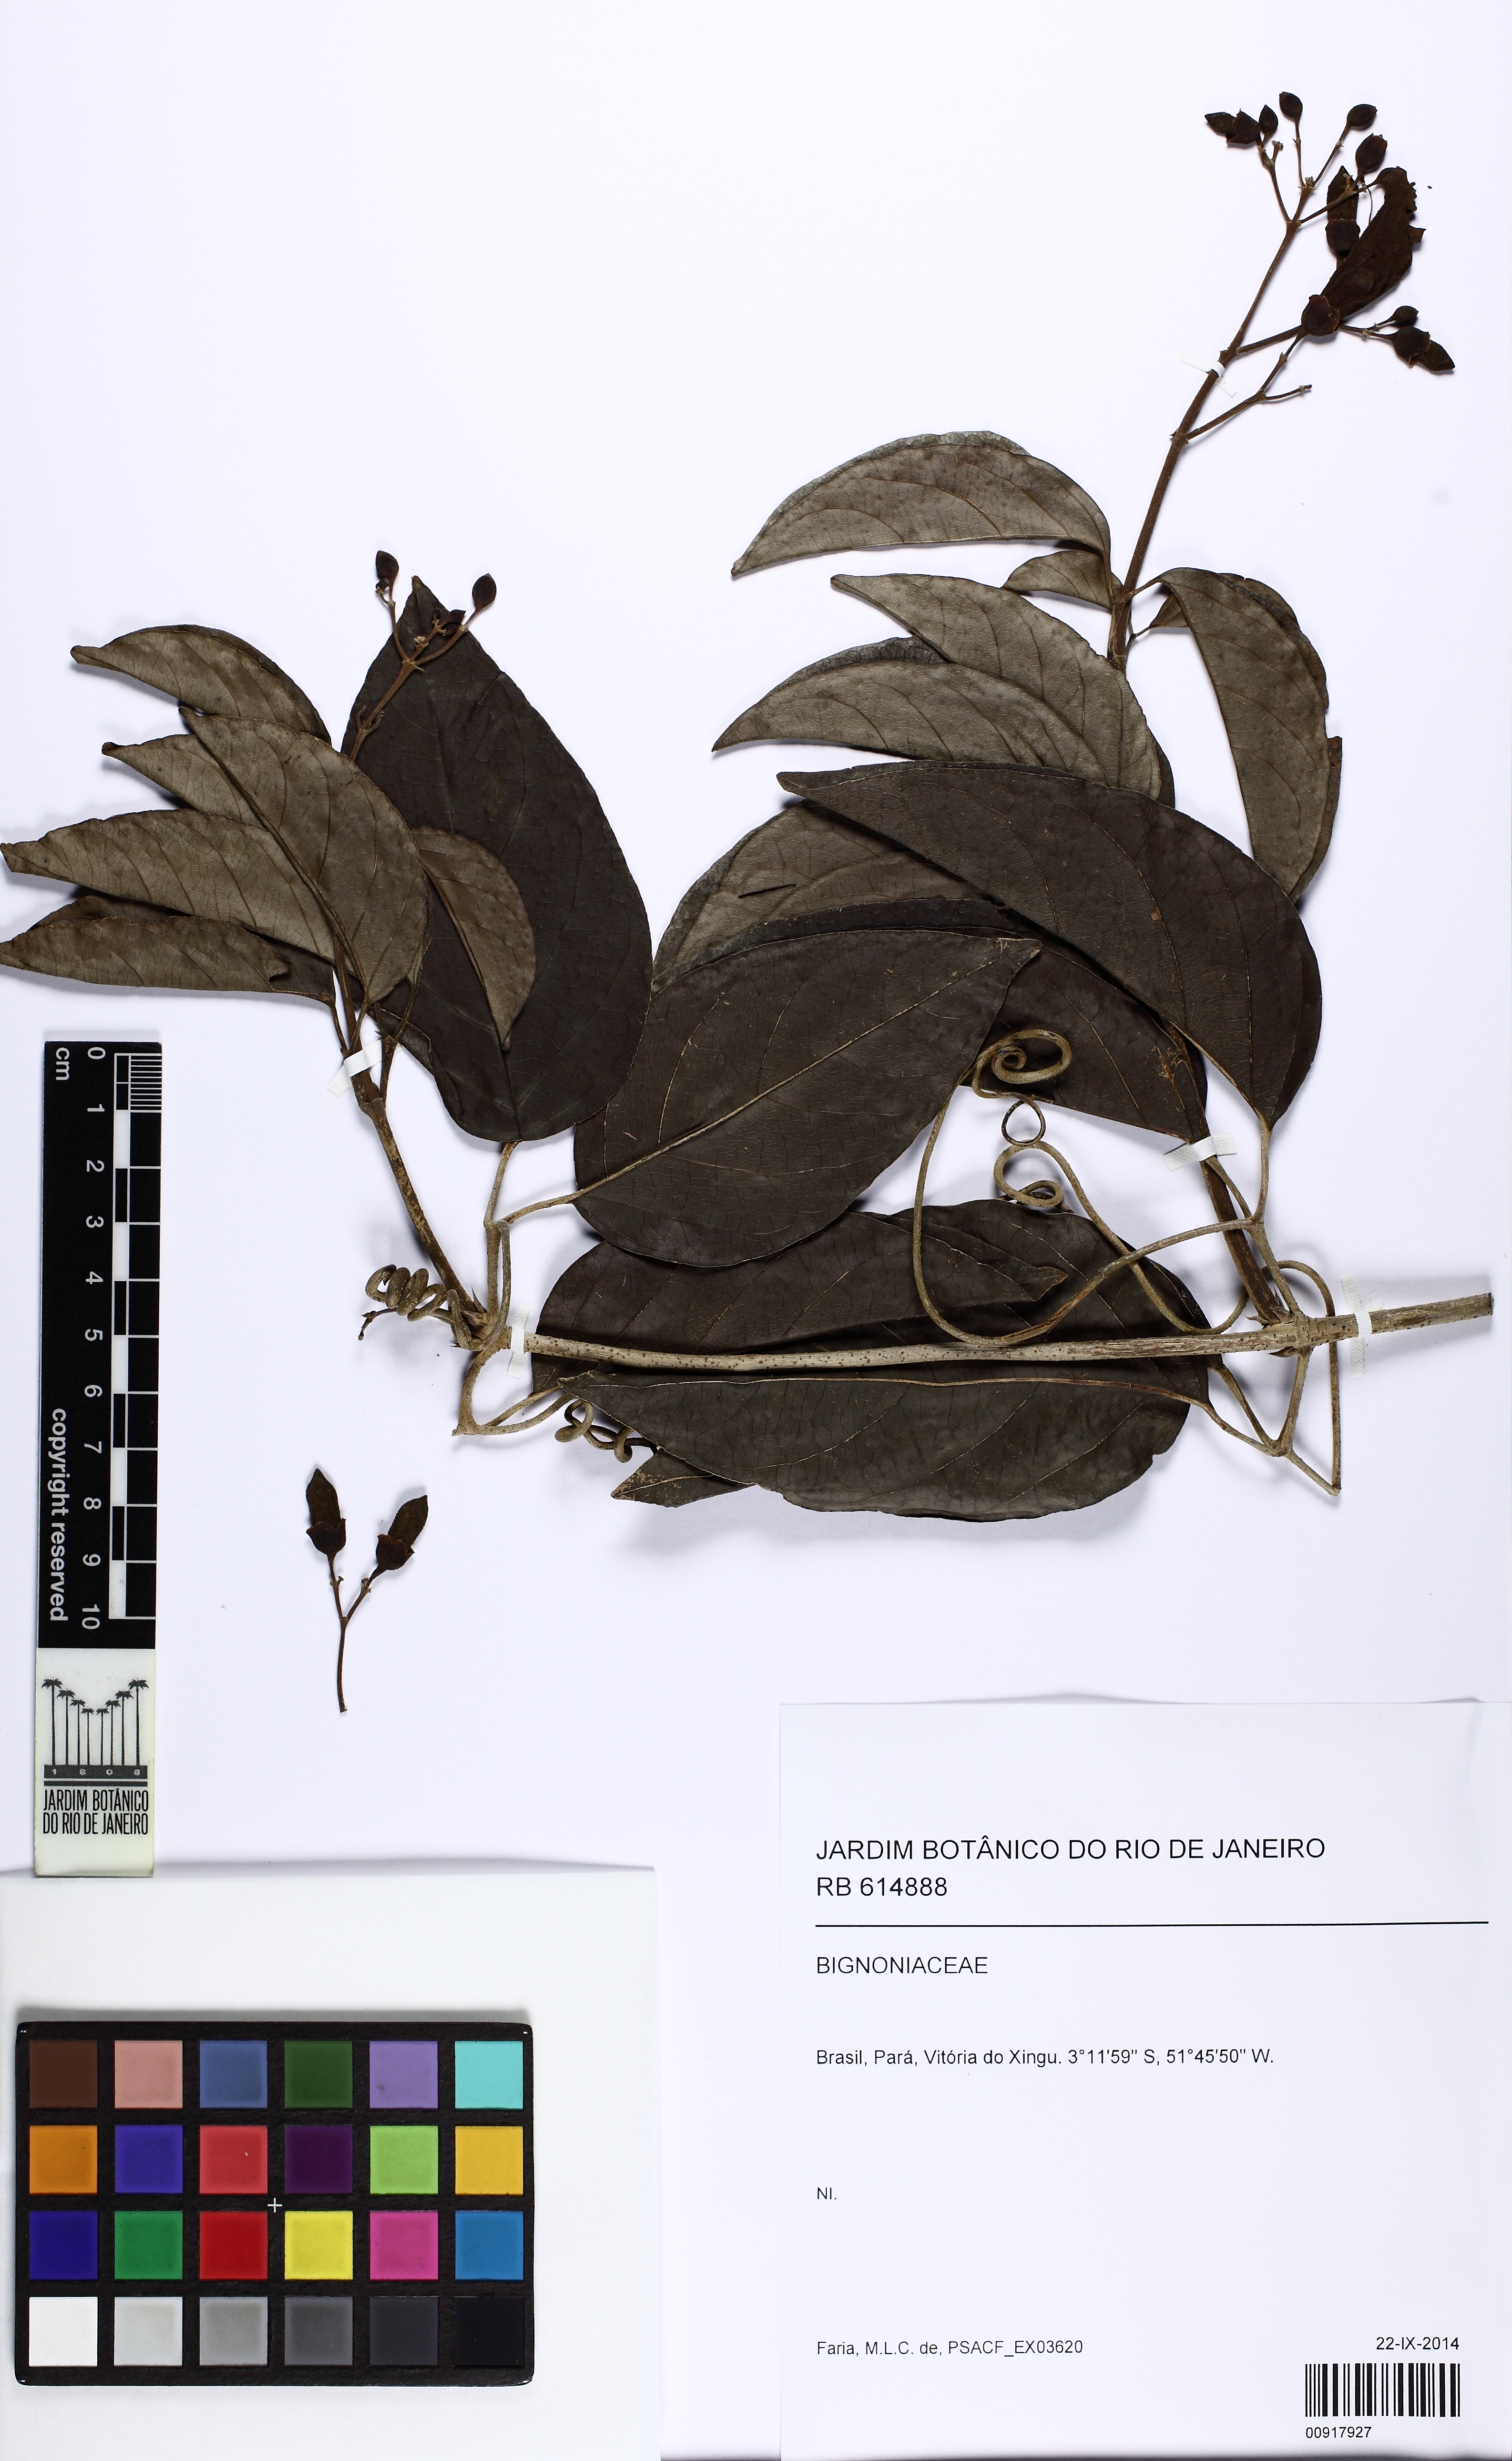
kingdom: Plantae
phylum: Tracheophyta
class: Magnoliopsida
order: Lamiales
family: Bignoniaceae
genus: Tanaecium
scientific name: Tanaecium pyramidatum
